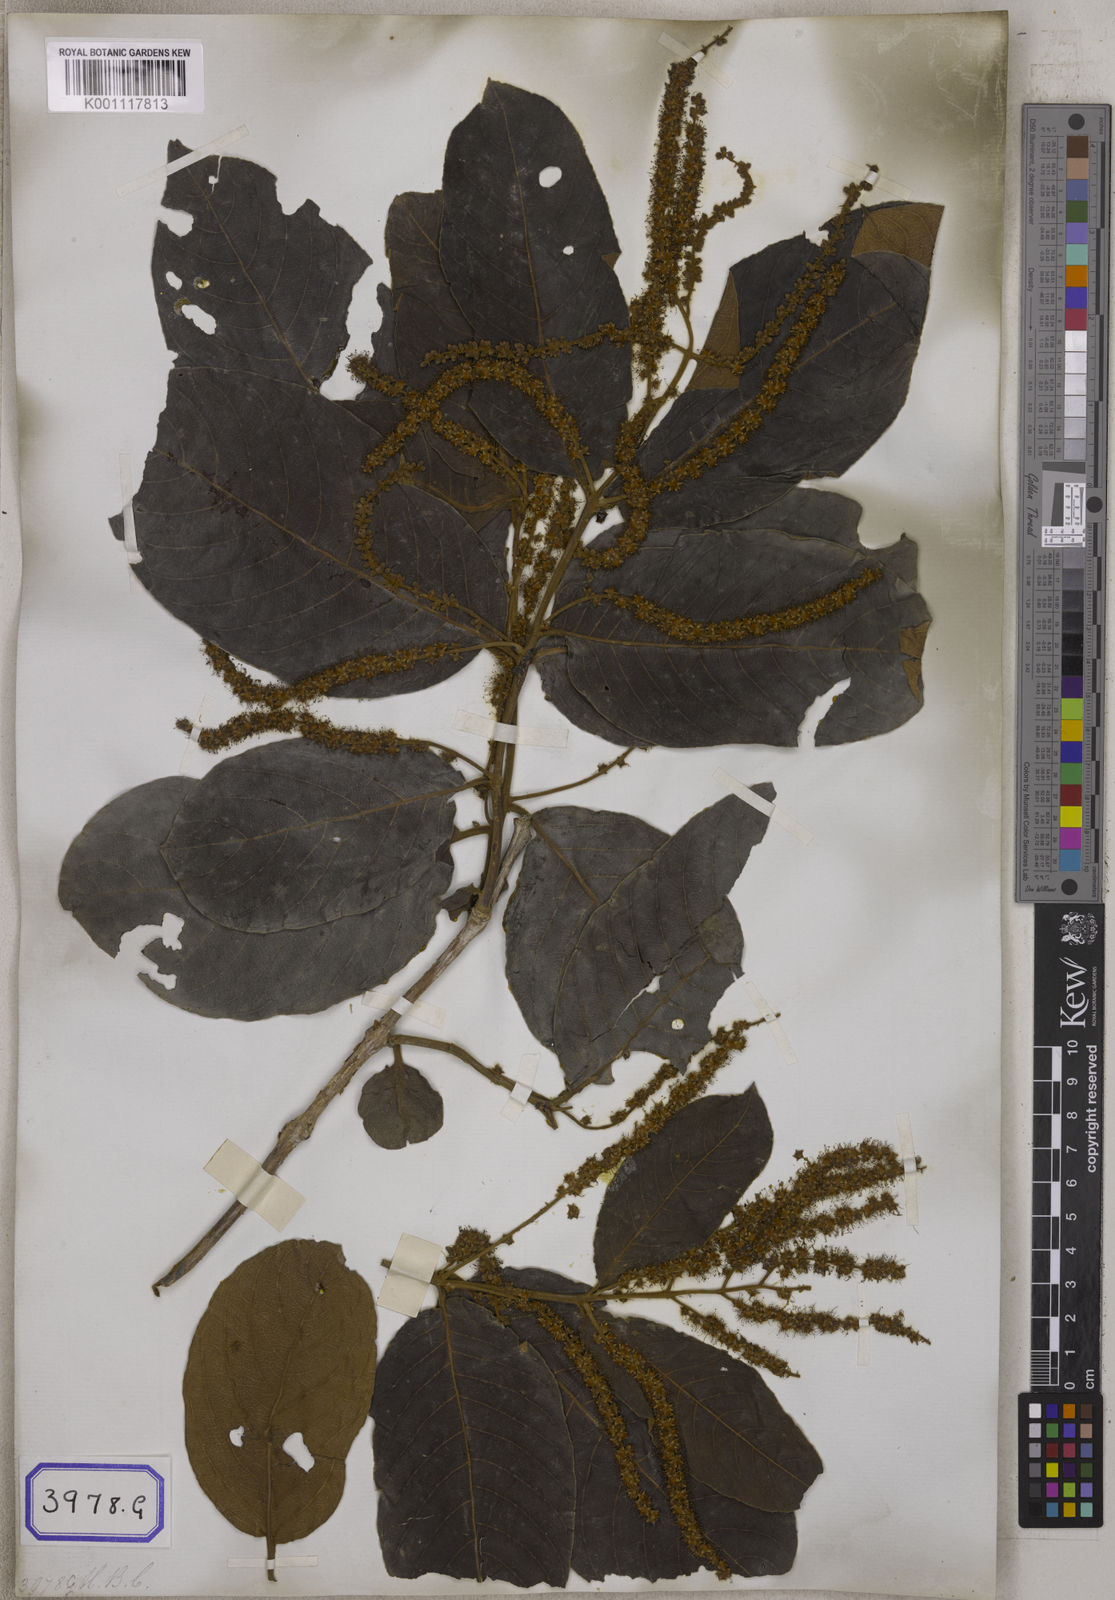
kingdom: Plantae
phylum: Tracheophyta
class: Magnoliopsida
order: Myrtales
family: Combretaceae
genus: Terminalia
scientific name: Terminalia
